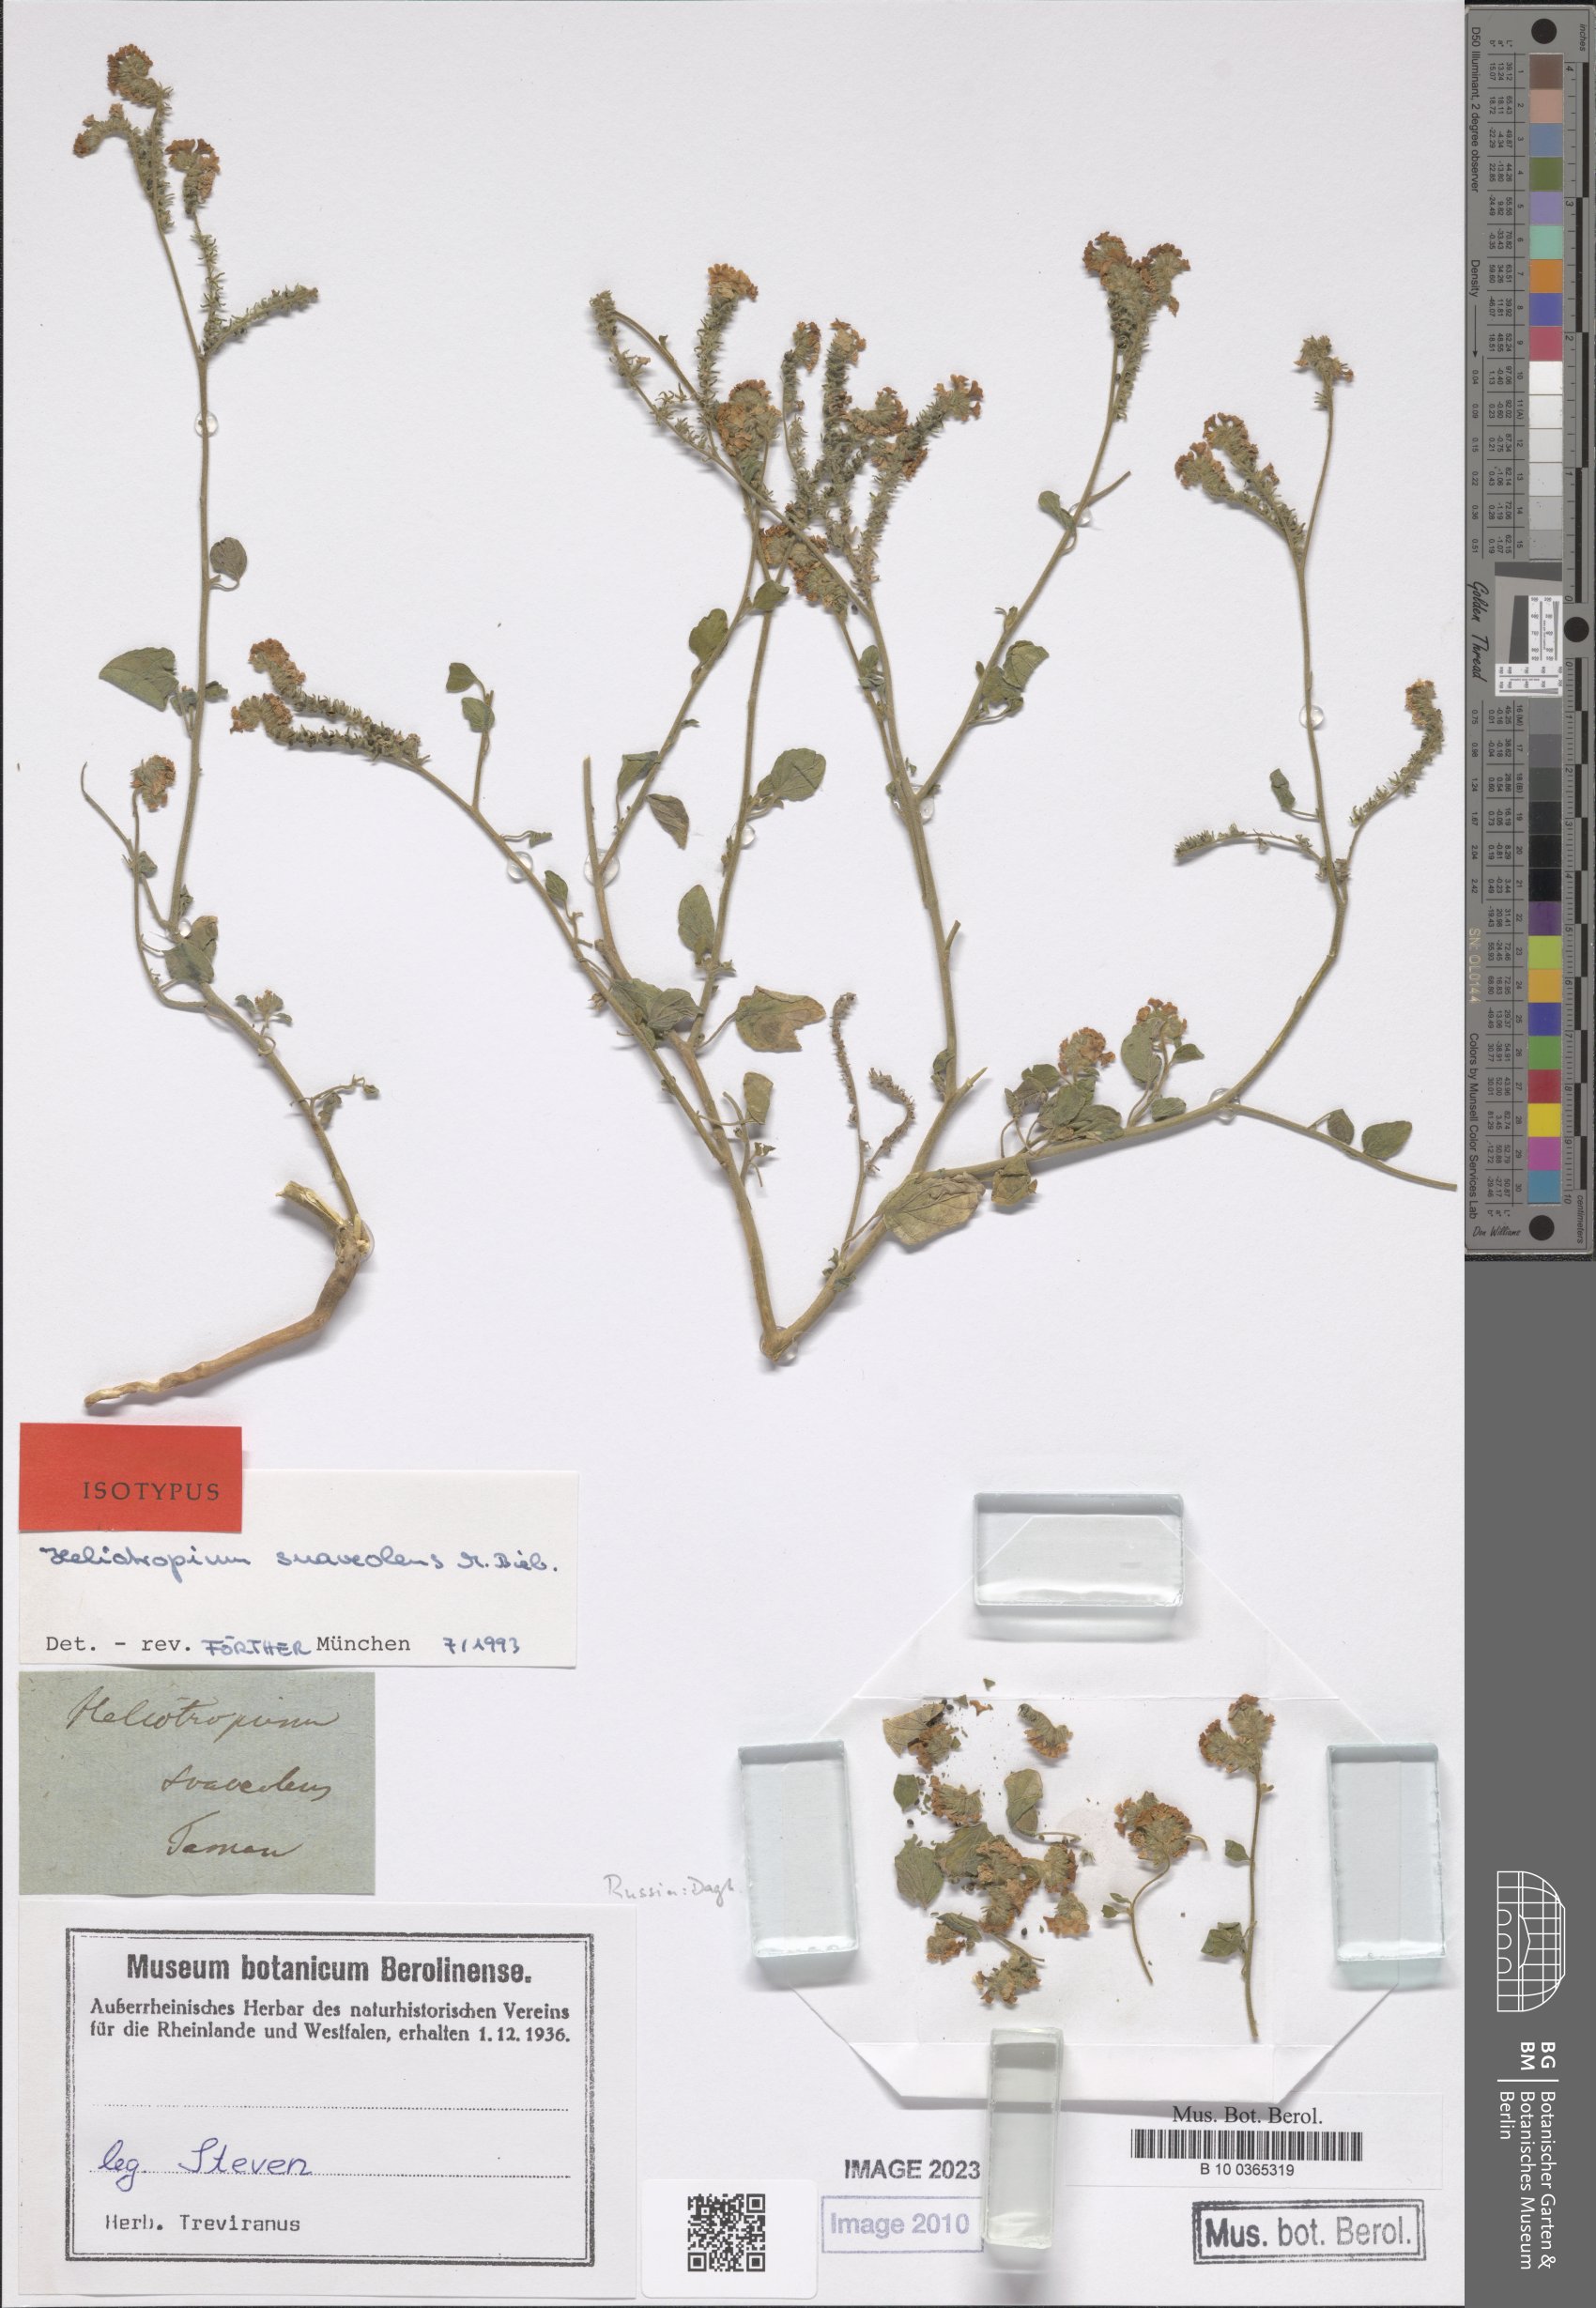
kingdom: Plantae
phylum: Tracheophyta
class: Magnoliopsida
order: Boraginales
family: Heliotropiaceae
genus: Heliotropium
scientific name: Heliotropium suaveolens
